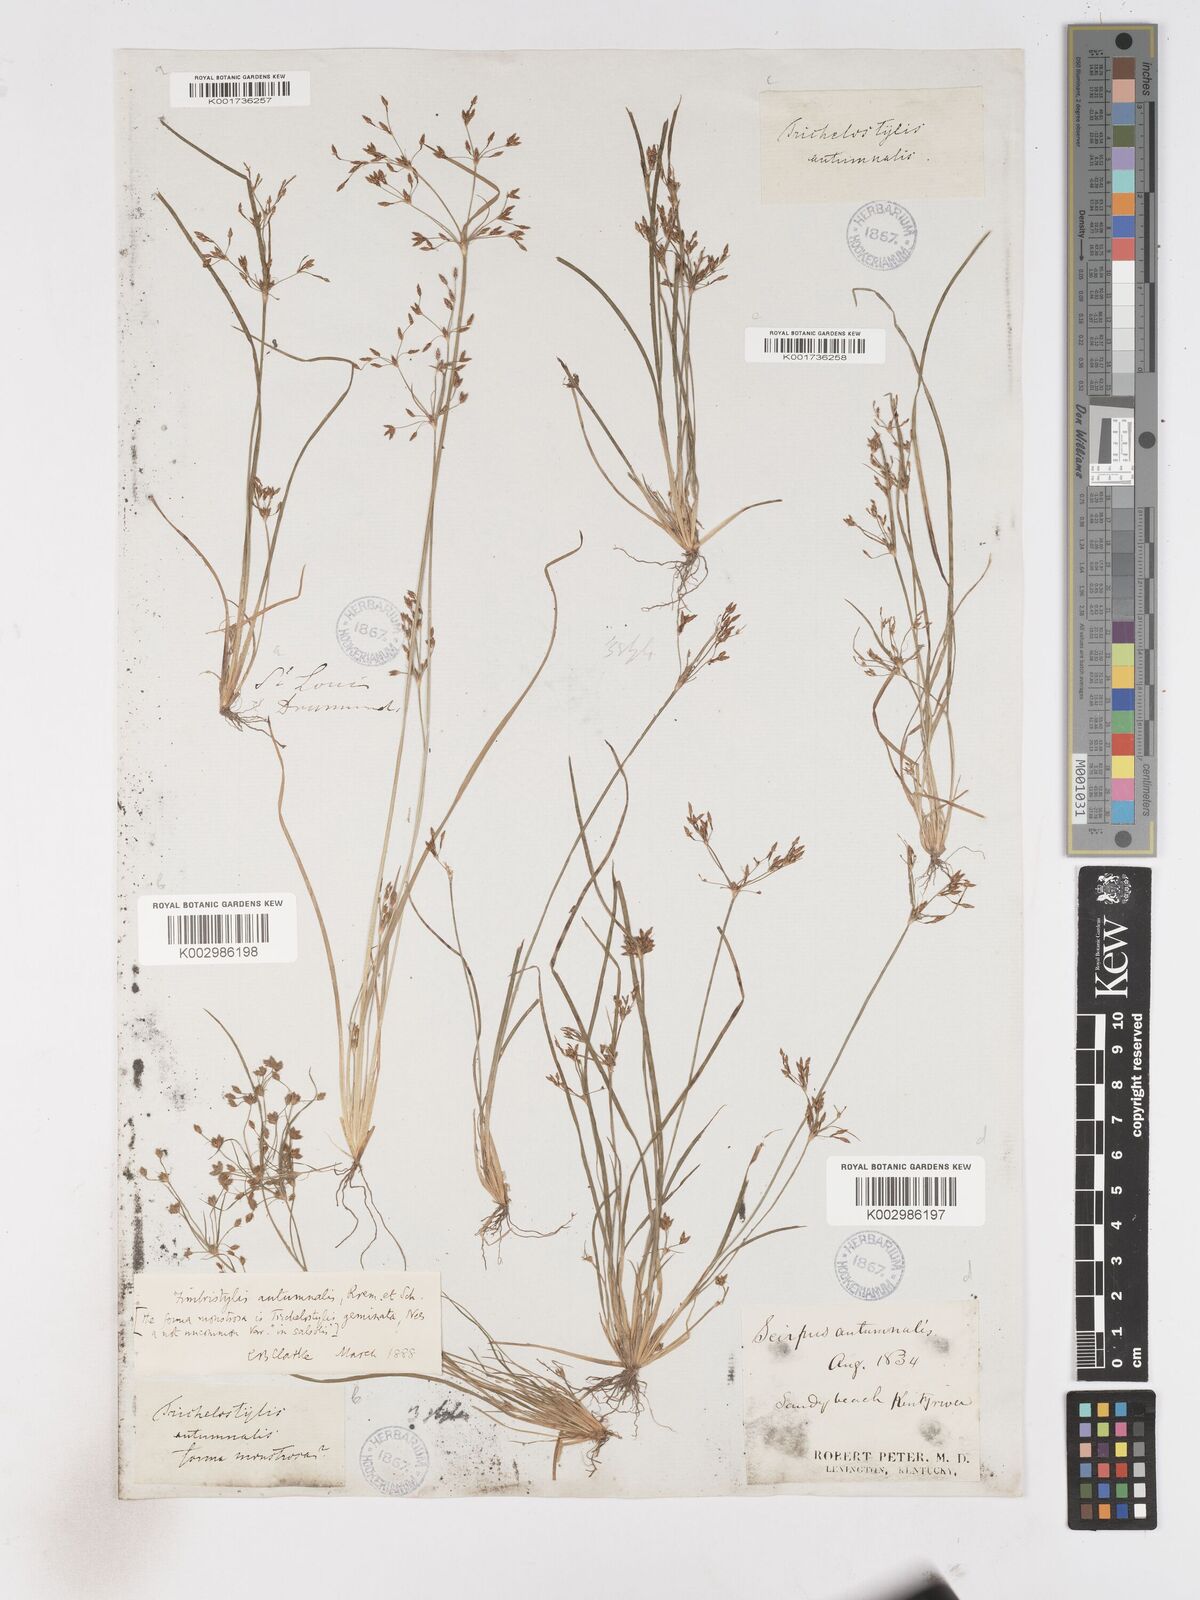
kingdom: Plantae
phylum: Tracheophyta
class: Liliopsida
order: Poales
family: Cyperaceae
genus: Fimbristylis
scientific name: Fimbristylis autumnalis
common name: Slender fimbristylis
